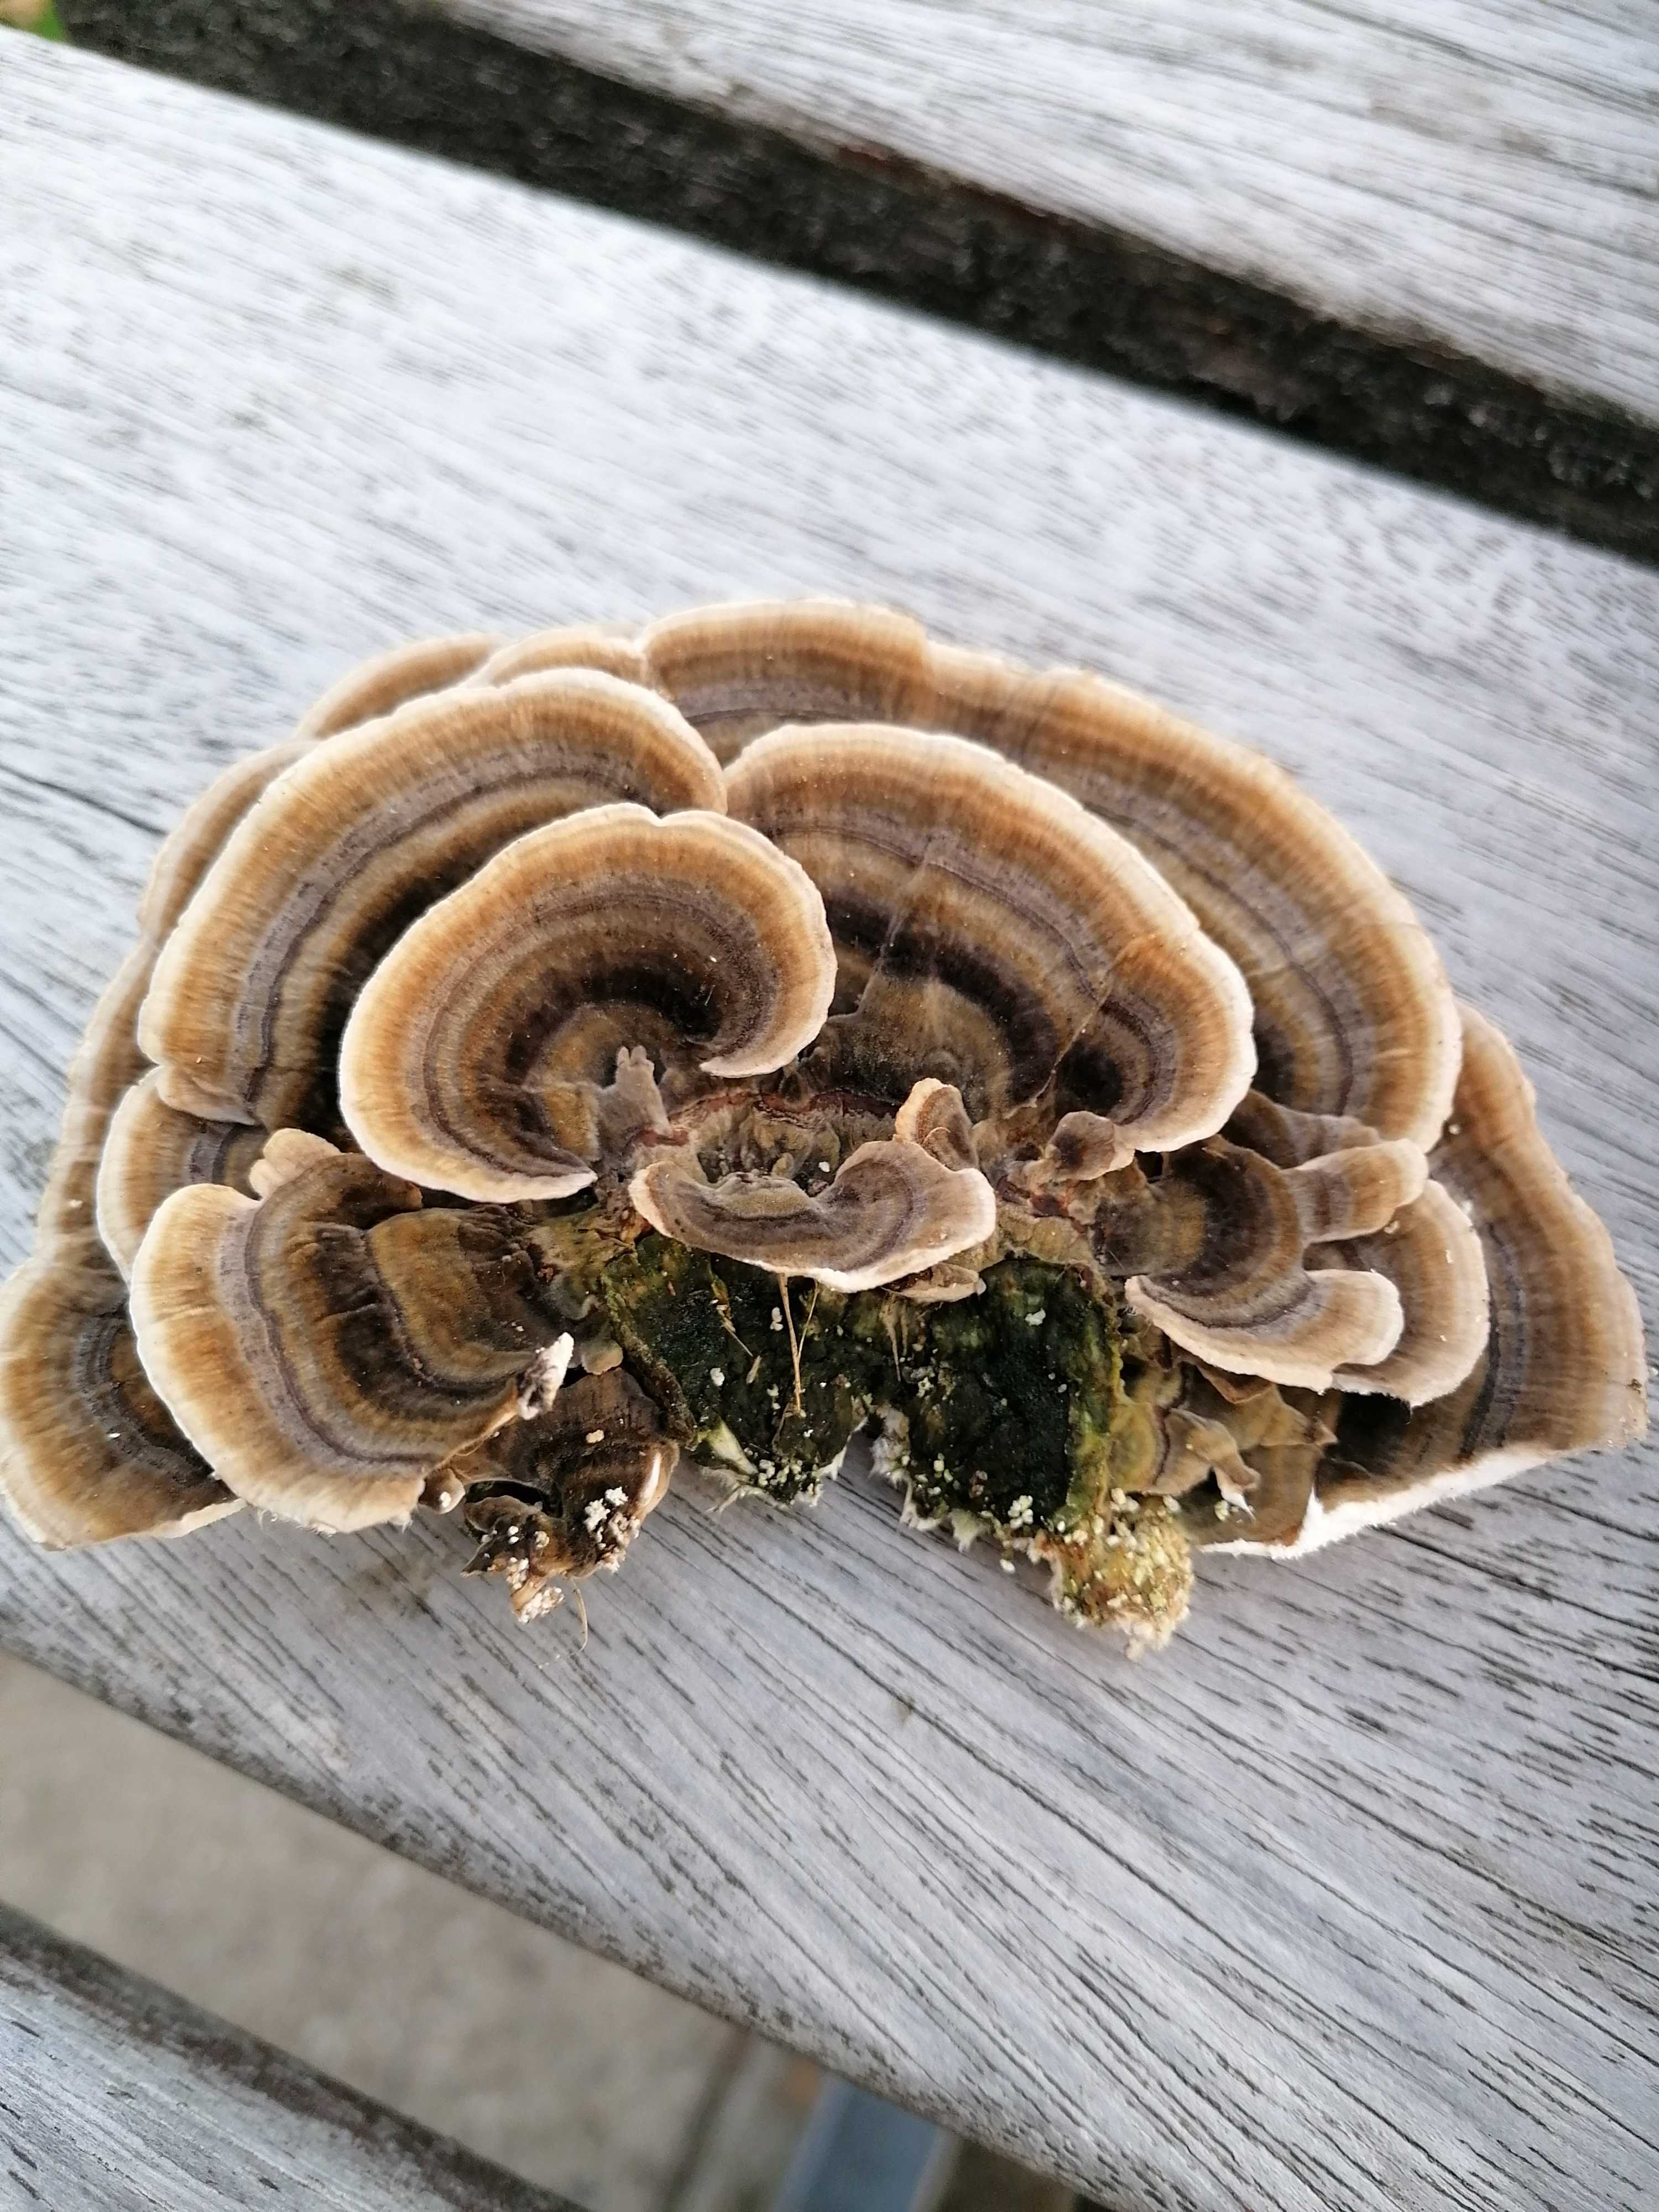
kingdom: Fungi
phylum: Basidiomycota
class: Agaricomycetes
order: Polyporales
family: Polyporaceae
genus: Trametes
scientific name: Trametes versicolor
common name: broget læderporesvamp
